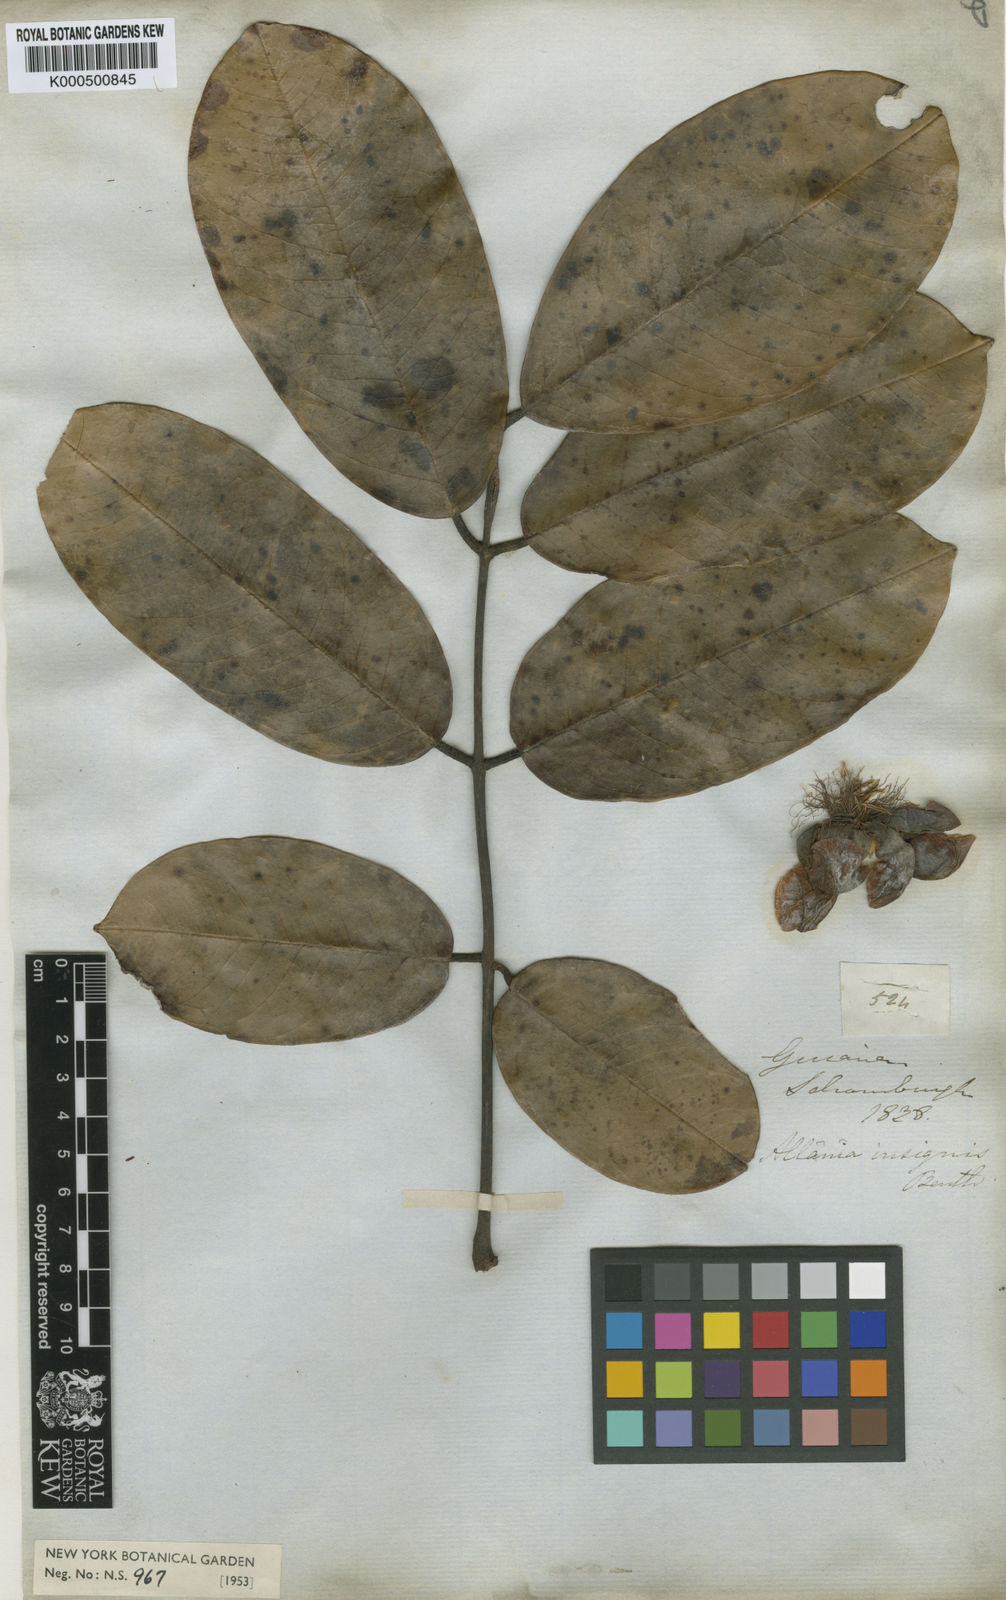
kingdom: Plantae
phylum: Tracheophyta
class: Magnoliopsida
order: Fabales
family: Fabaceae
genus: Aldina
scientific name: Aldina insignis
